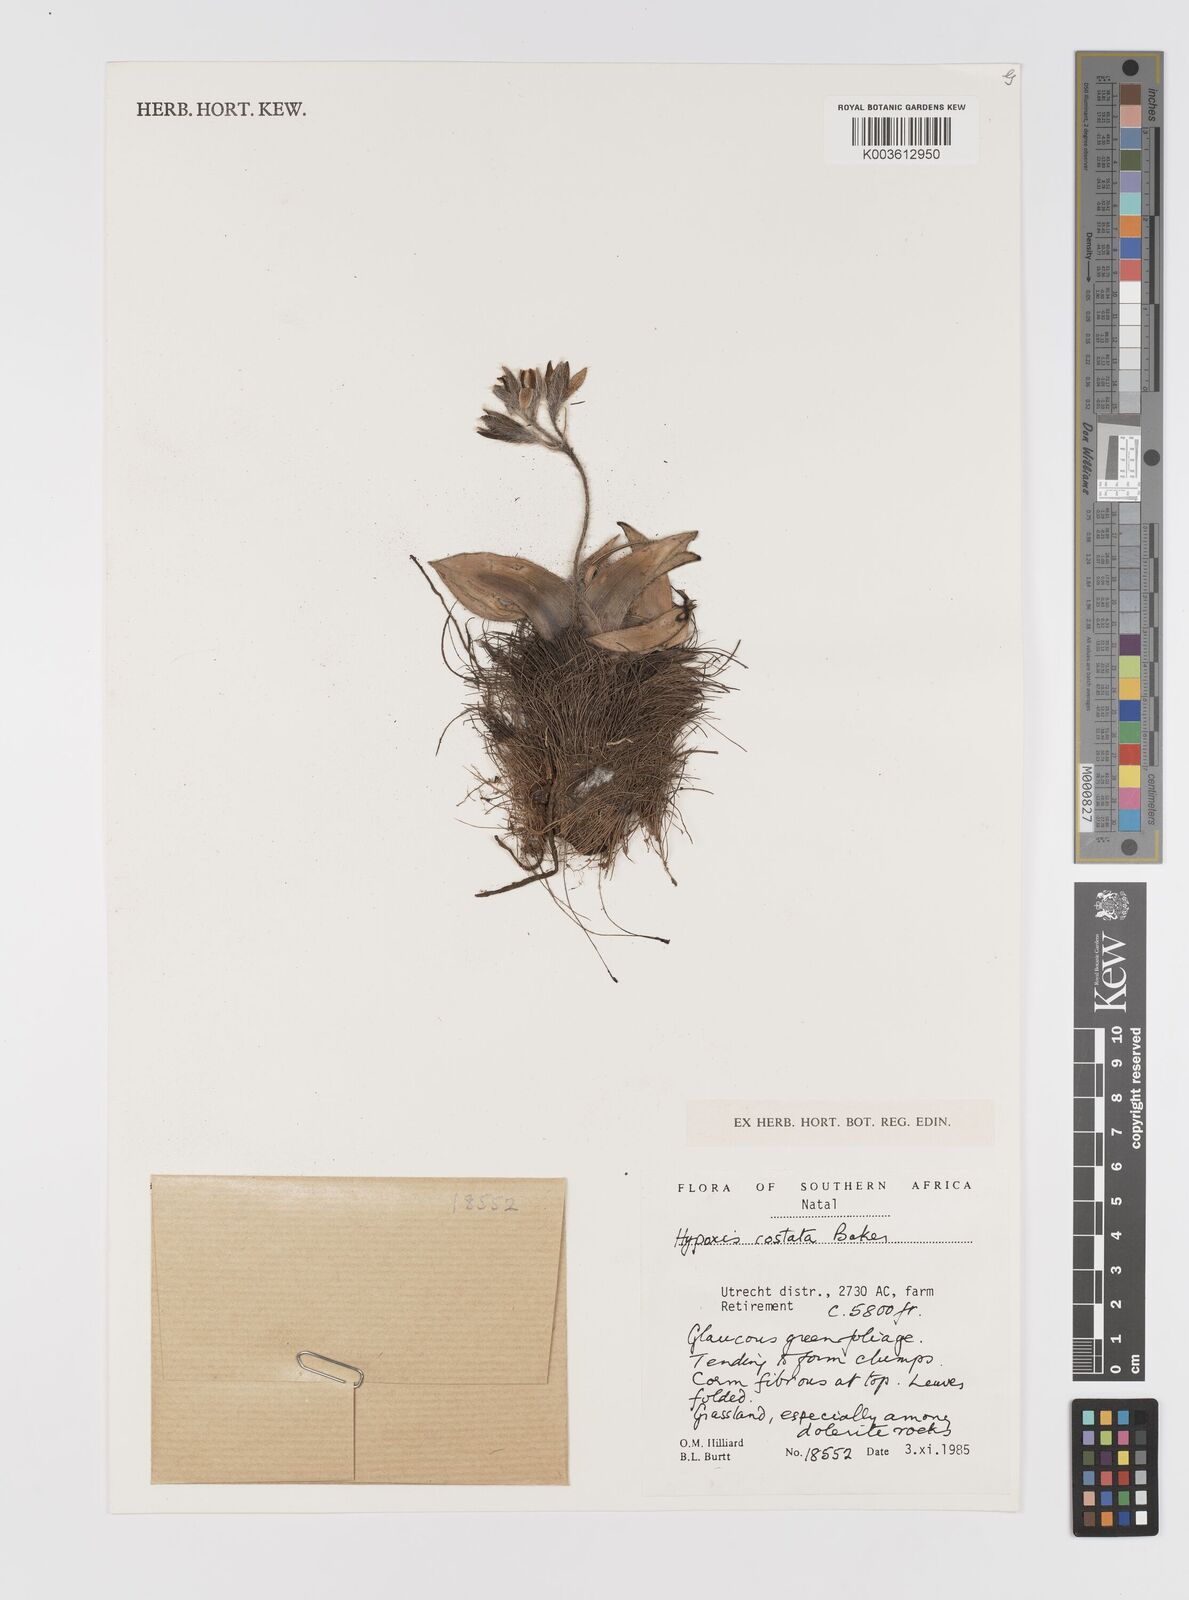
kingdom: Plantae
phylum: Tracheophyta
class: Liliopsida
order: Asparagales
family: Hypoxidaceae
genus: Hypoxis
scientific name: Hypoxis costata
